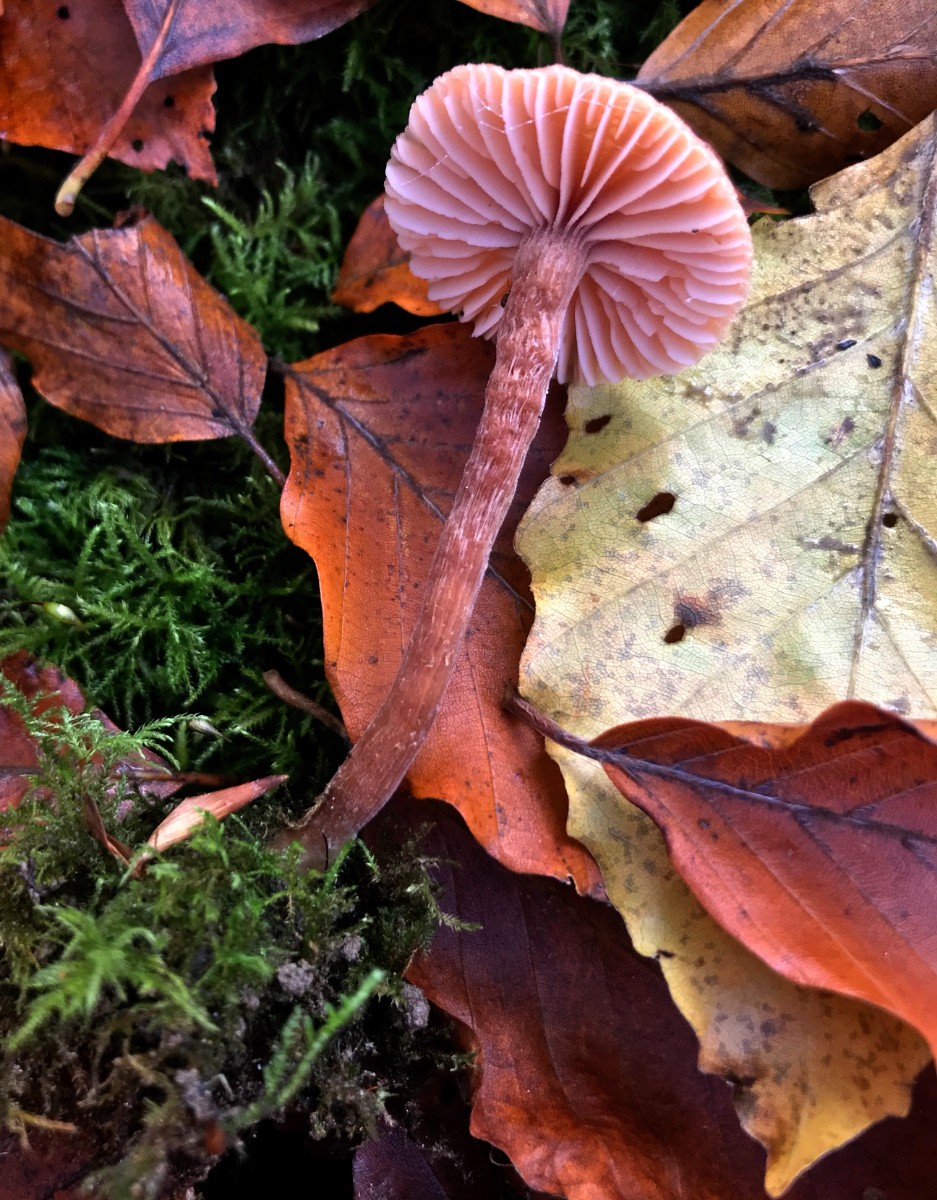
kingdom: Fungi
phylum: Basidiomycota
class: Agaricomycetes
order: Agaricales
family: Hydnangiaceae
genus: Laccaria
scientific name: Laccaria laccata
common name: rød ametysthat
